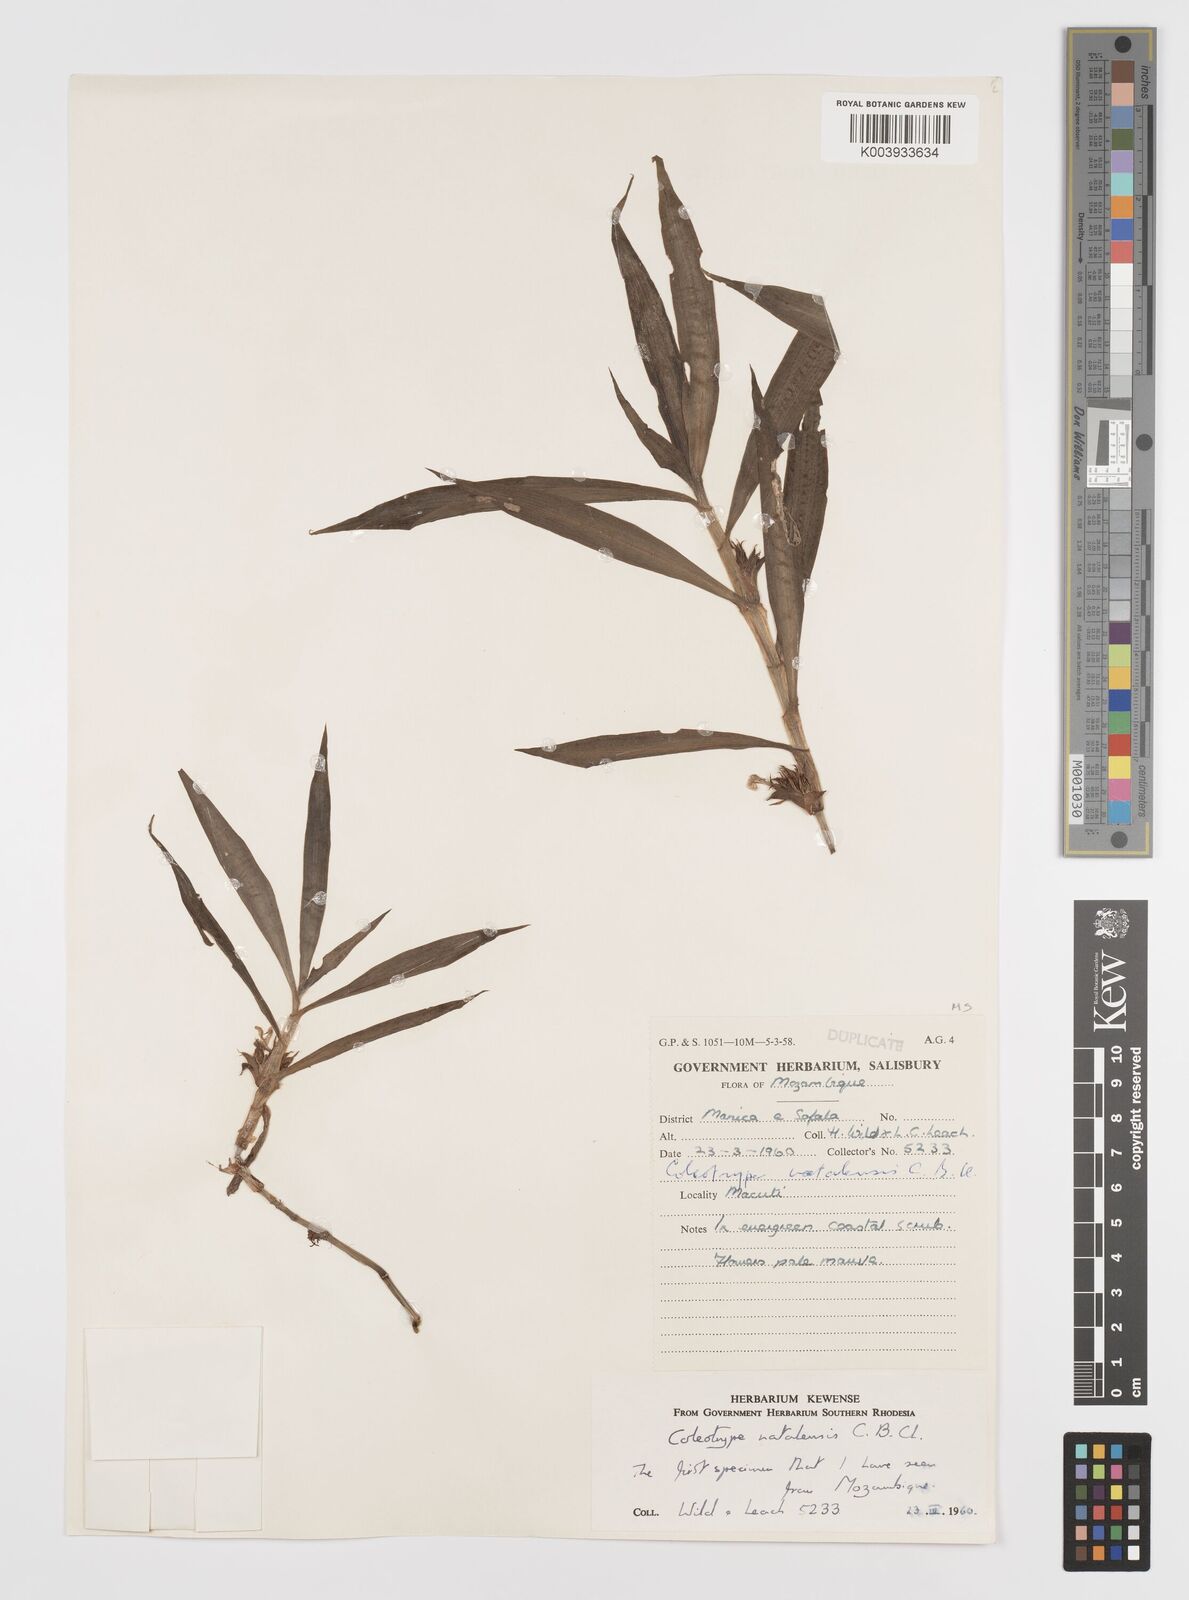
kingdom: Plantae
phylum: Tracheophyta
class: Liliopsida
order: Commelinales
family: Commelinaceae
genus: Coleotrype
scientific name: Coleotrype natalensis
